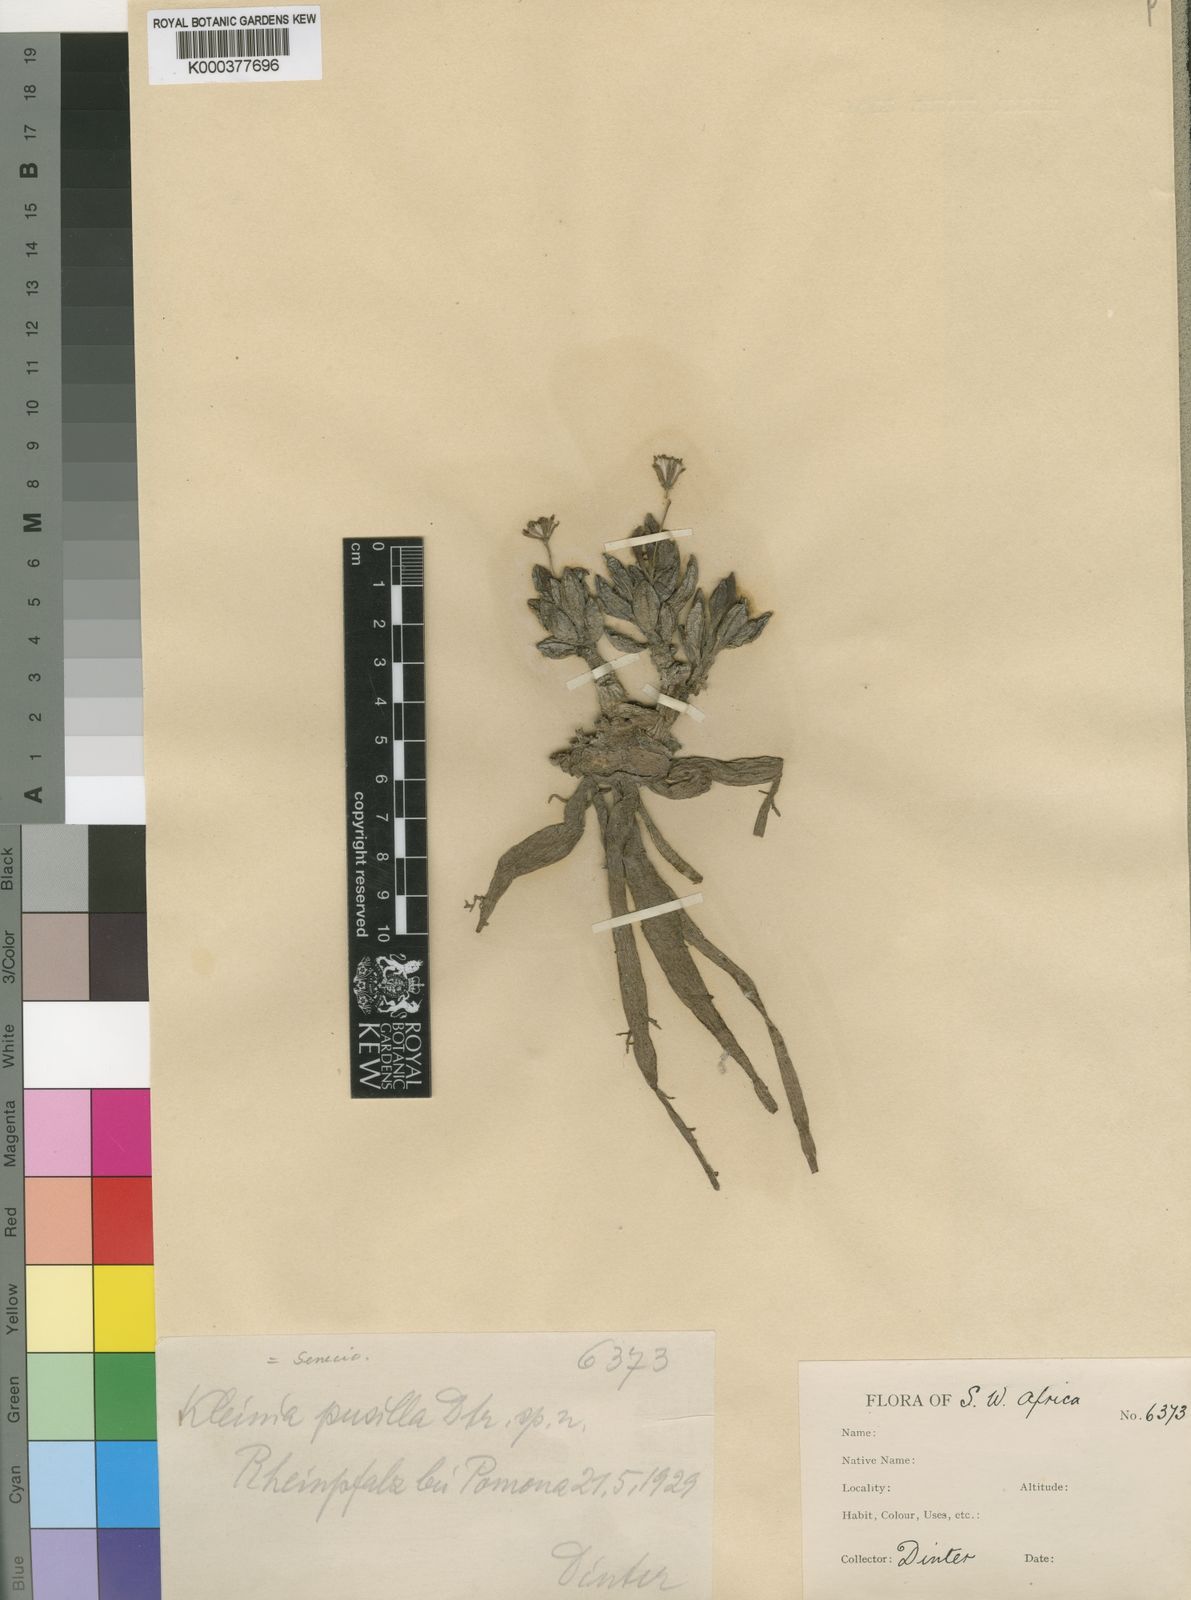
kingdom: Plantae
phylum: Tracheophyta
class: Magnoliopsida
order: Asterales
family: Asteraceae
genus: Curio
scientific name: Curio sulcicalyx
